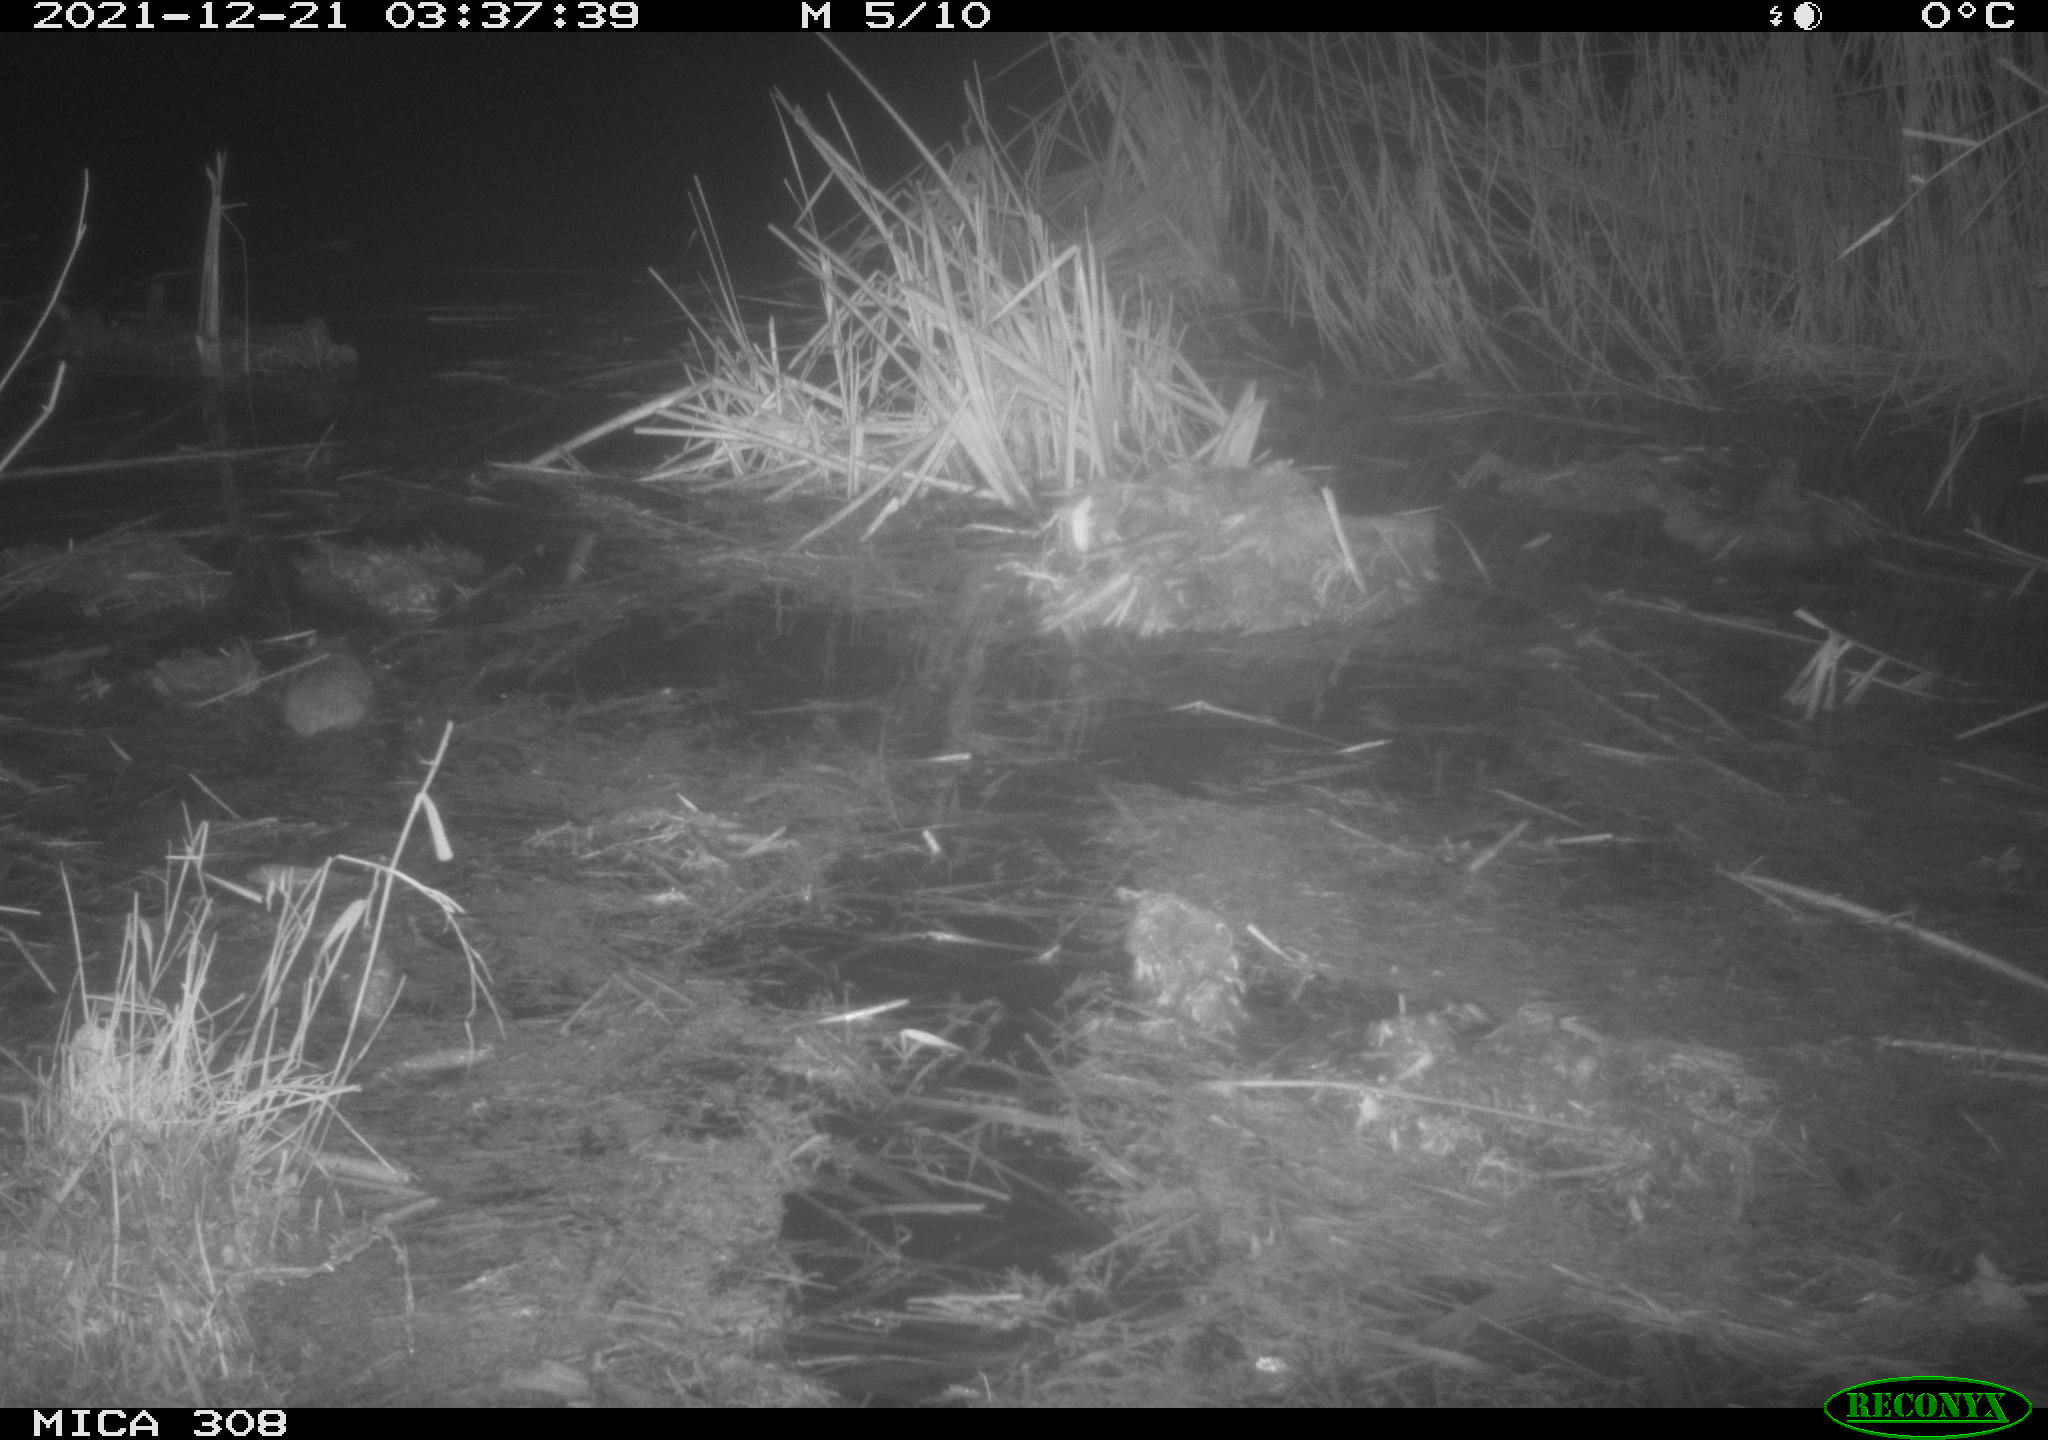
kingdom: Animalia
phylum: Chordata
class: Mammalia
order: Rodentia
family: Muridae
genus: Rattus
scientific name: Rattus norvegicus
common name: Brown rat
